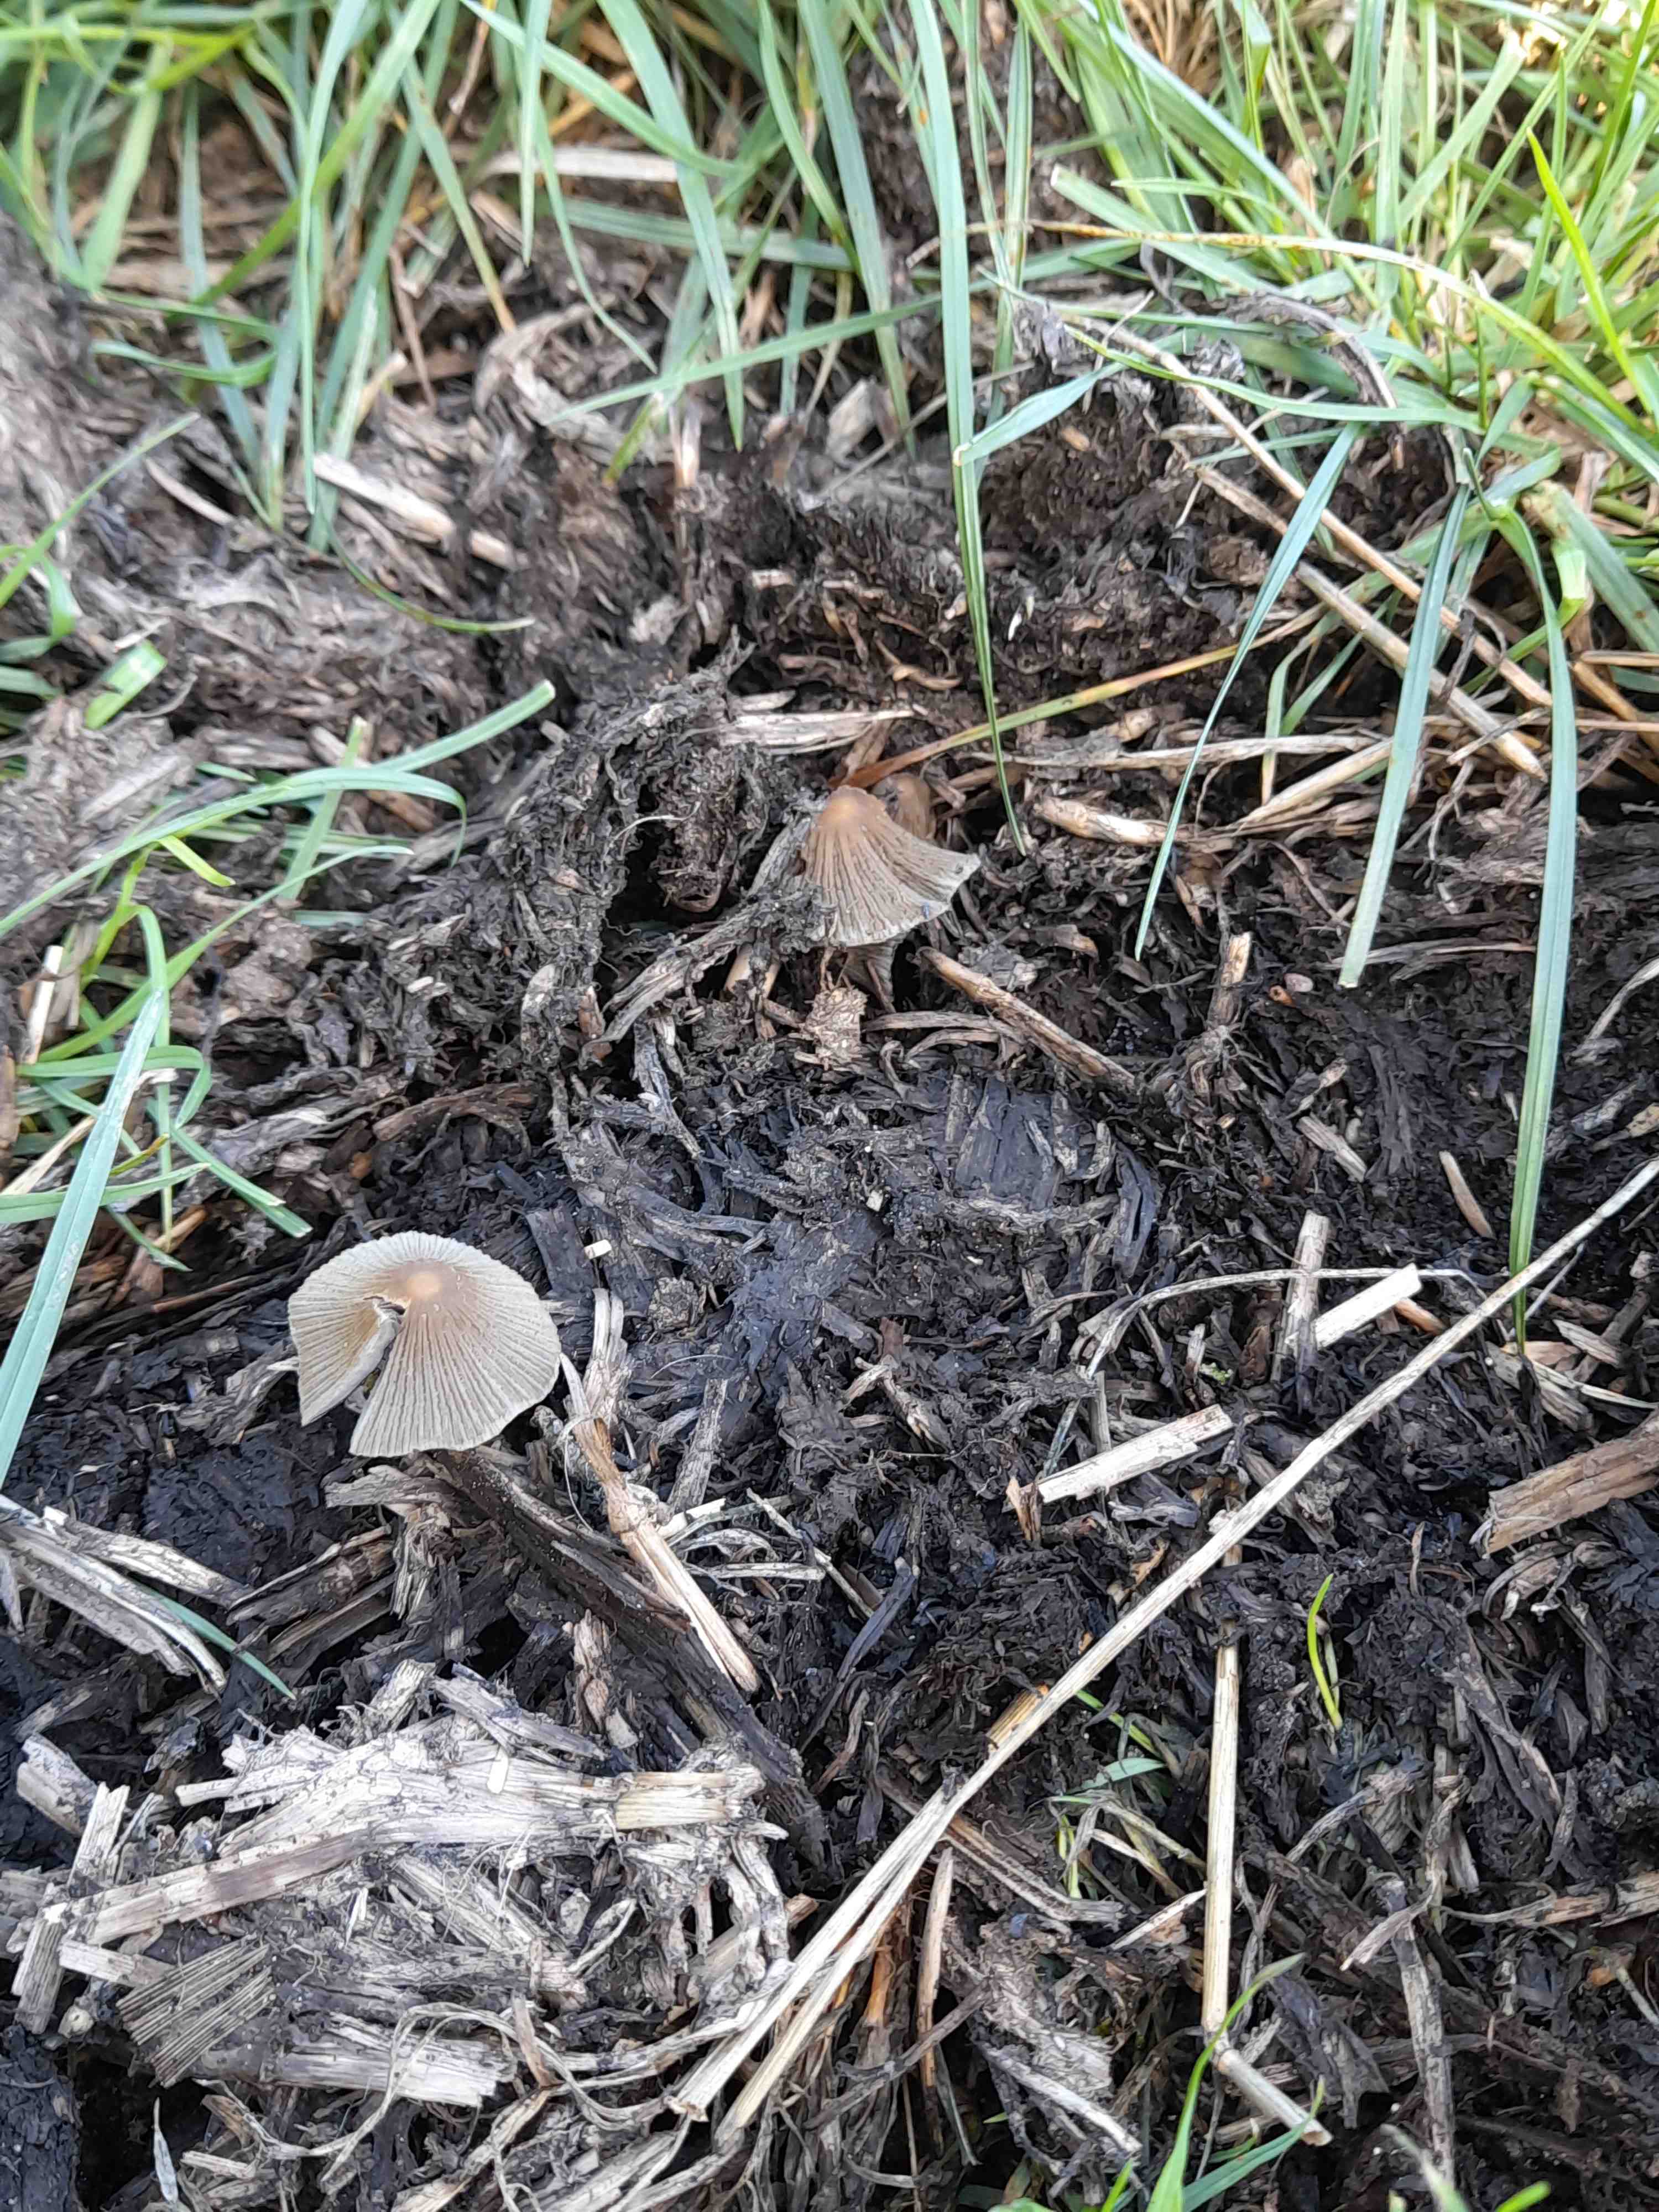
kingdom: Fungi
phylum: Basidiomycota
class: Agaricomycetes
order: Agaricales
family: Psathyrellaceae
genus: Coprinellus
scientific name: Coprinellus
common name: blækhat
